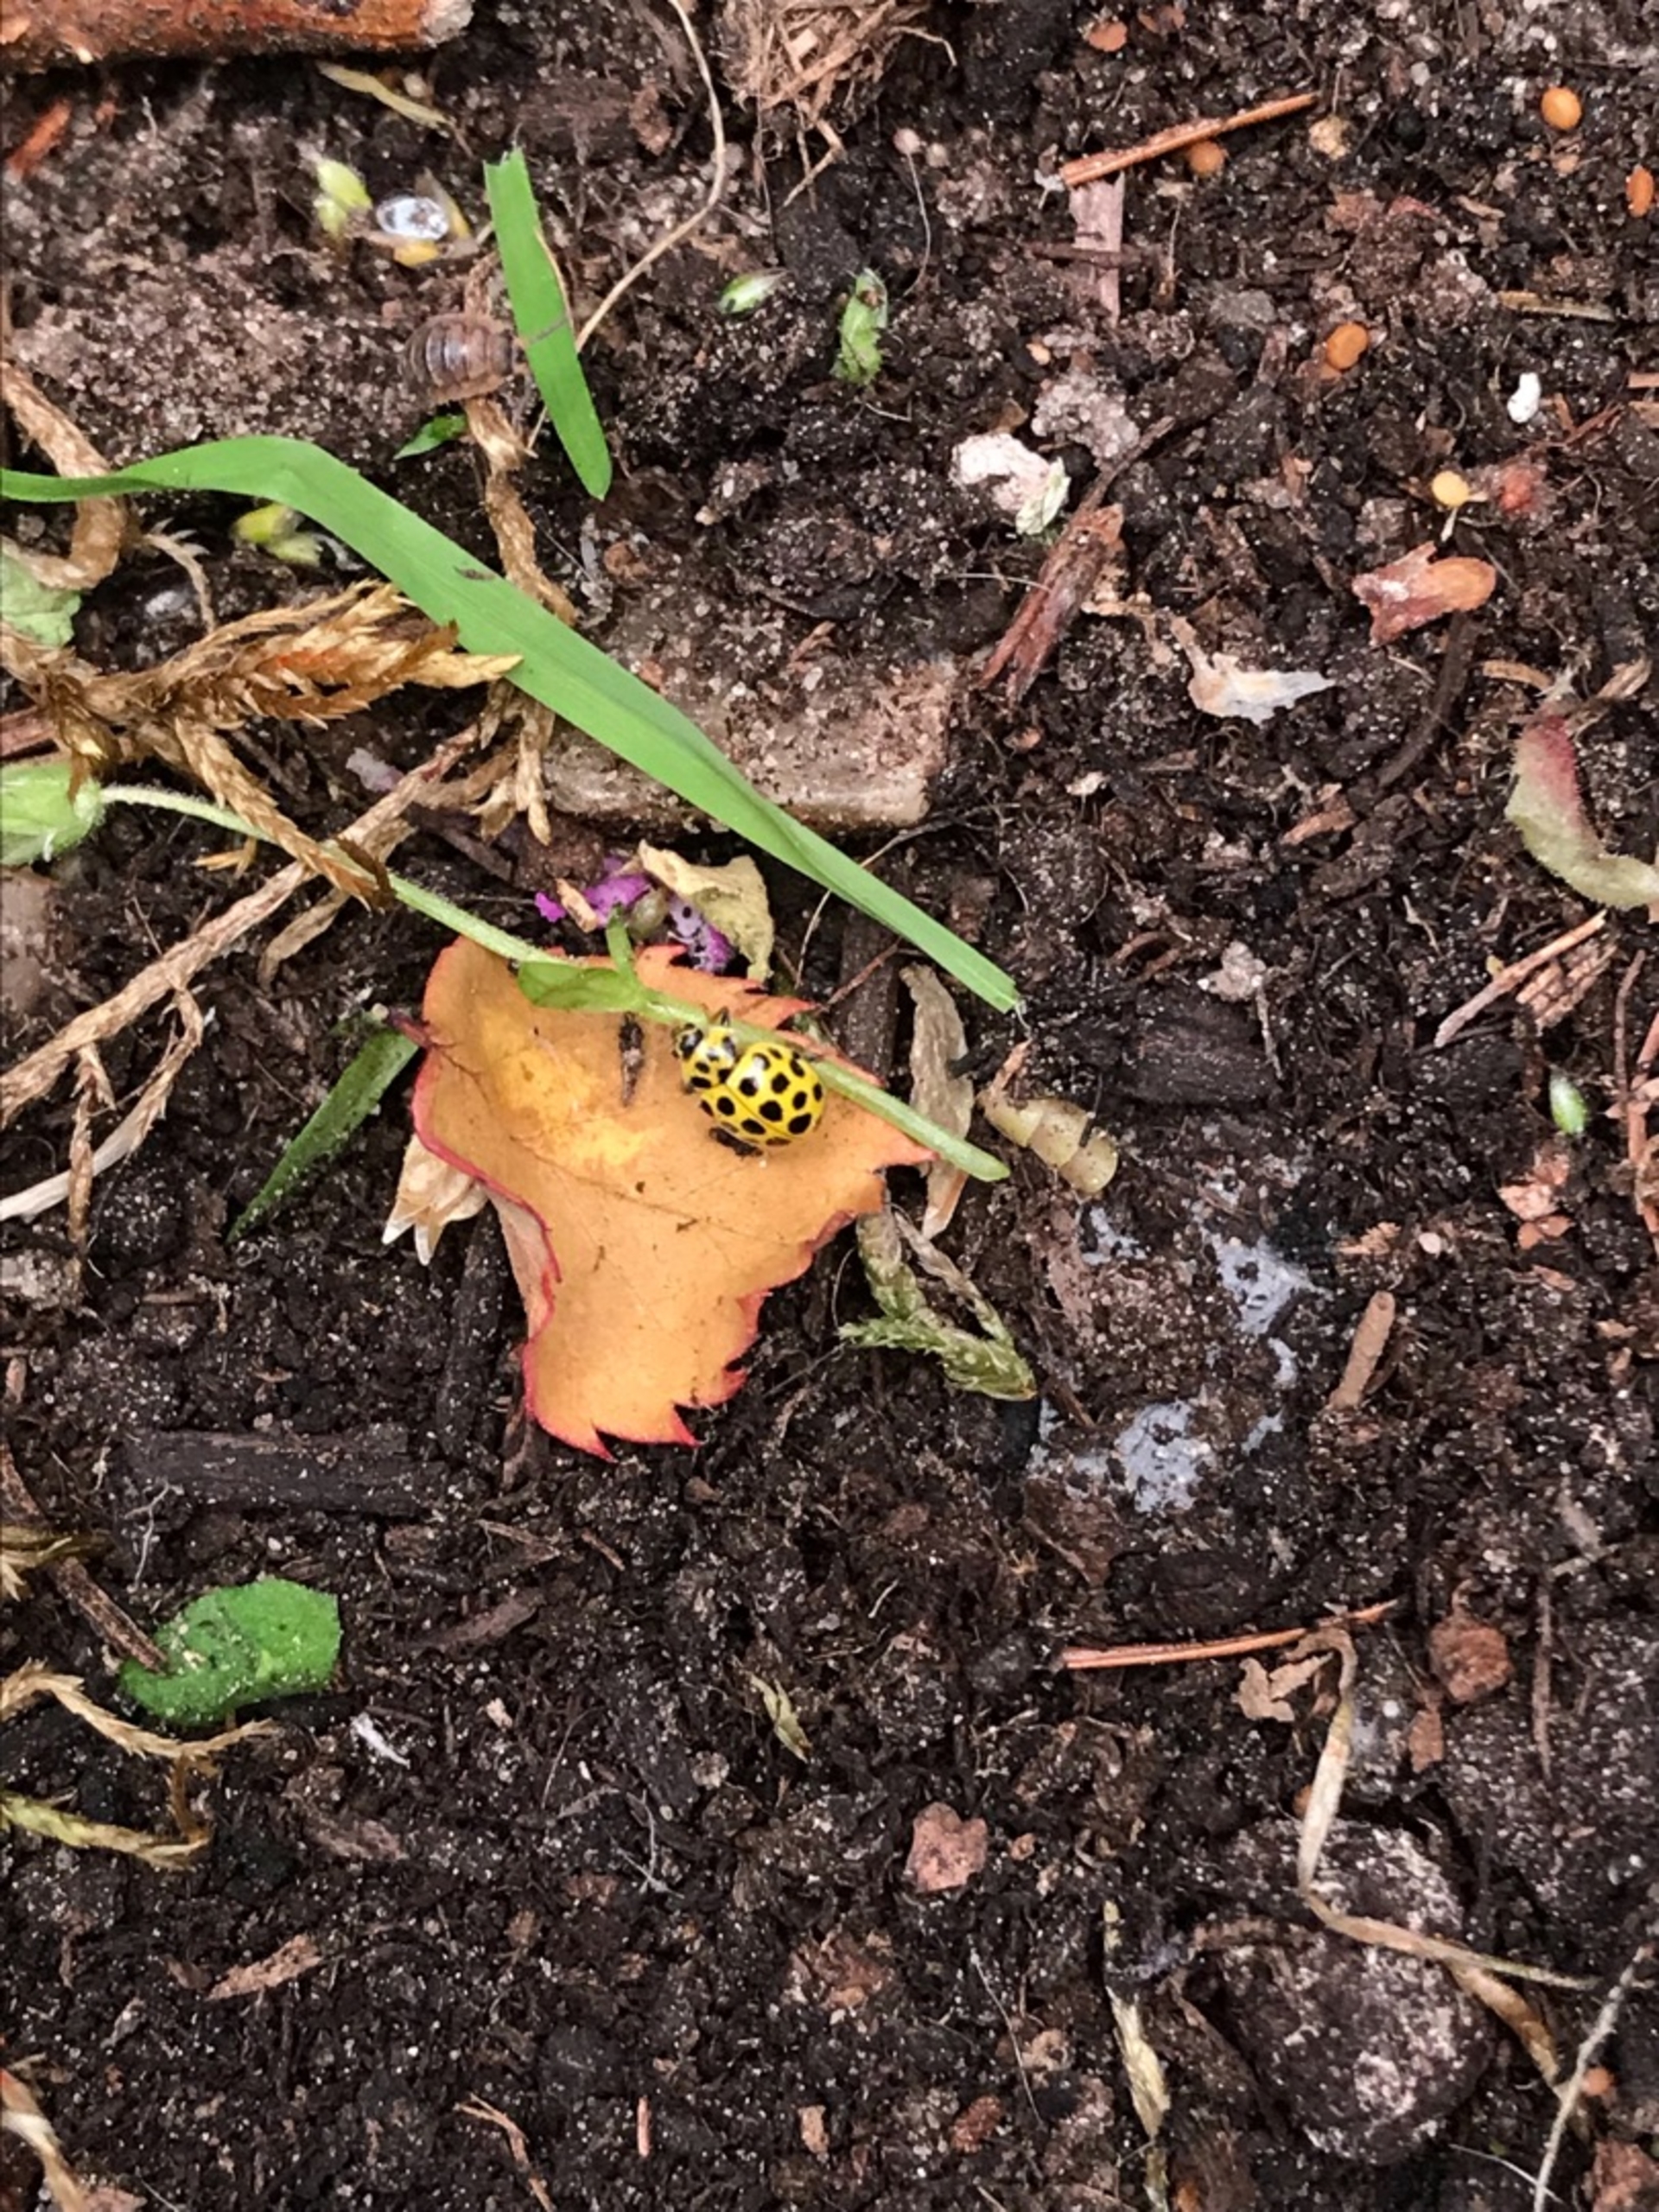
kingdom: Animalia
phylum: Arthropoda
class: Insecta
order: Coleoptera
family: Coccinellidae
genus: Psyllobora
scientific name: Psyllobora vigintiduopunctata
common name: Toogtyveplettet mariehøne
